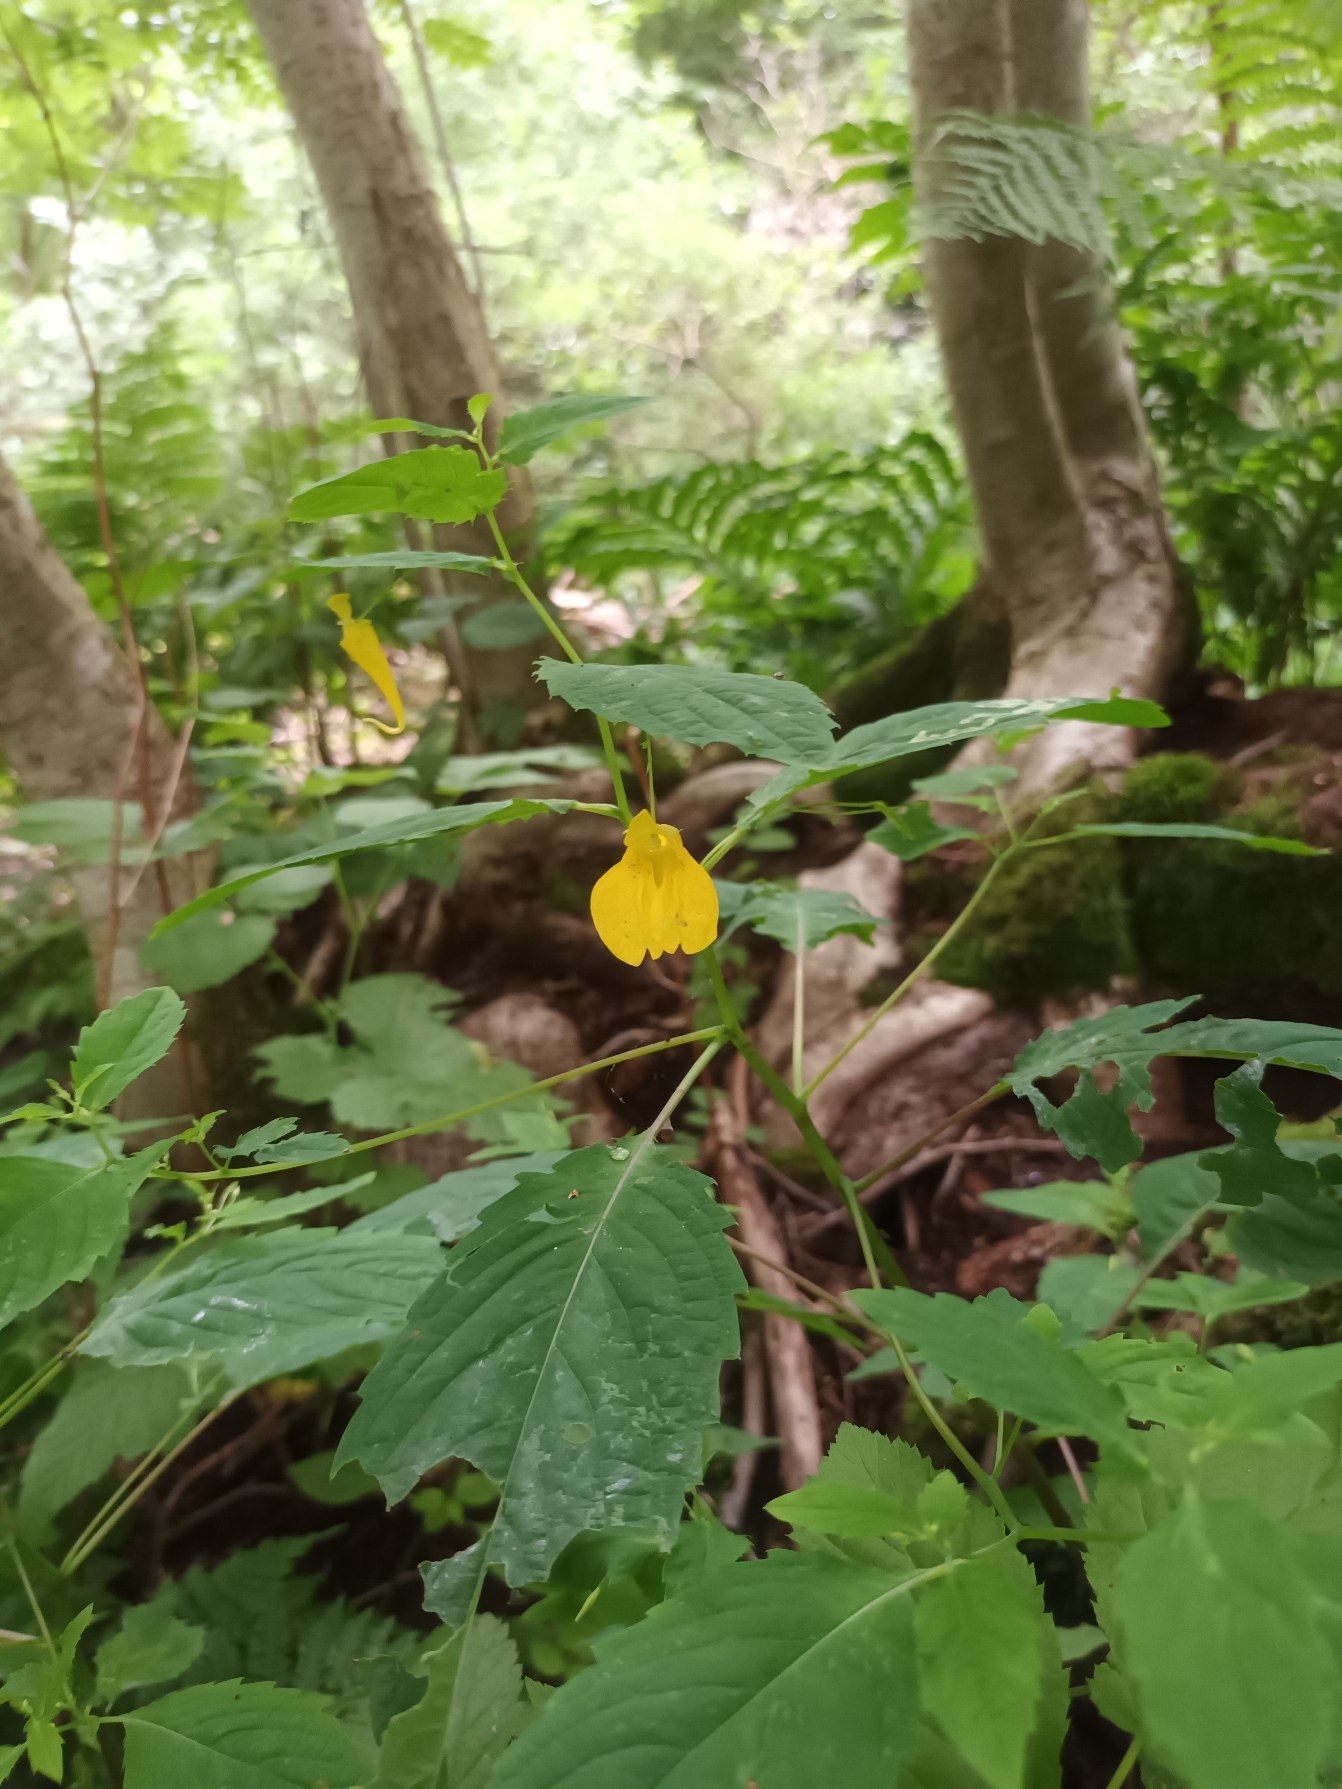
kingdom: Plantae
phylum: Tracheophyta
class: Magnoliopsida
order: Ericales
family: Balsaminaceae
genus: Impatiens
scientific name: Impatiens noli-tangere
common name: Spring-balsamin
